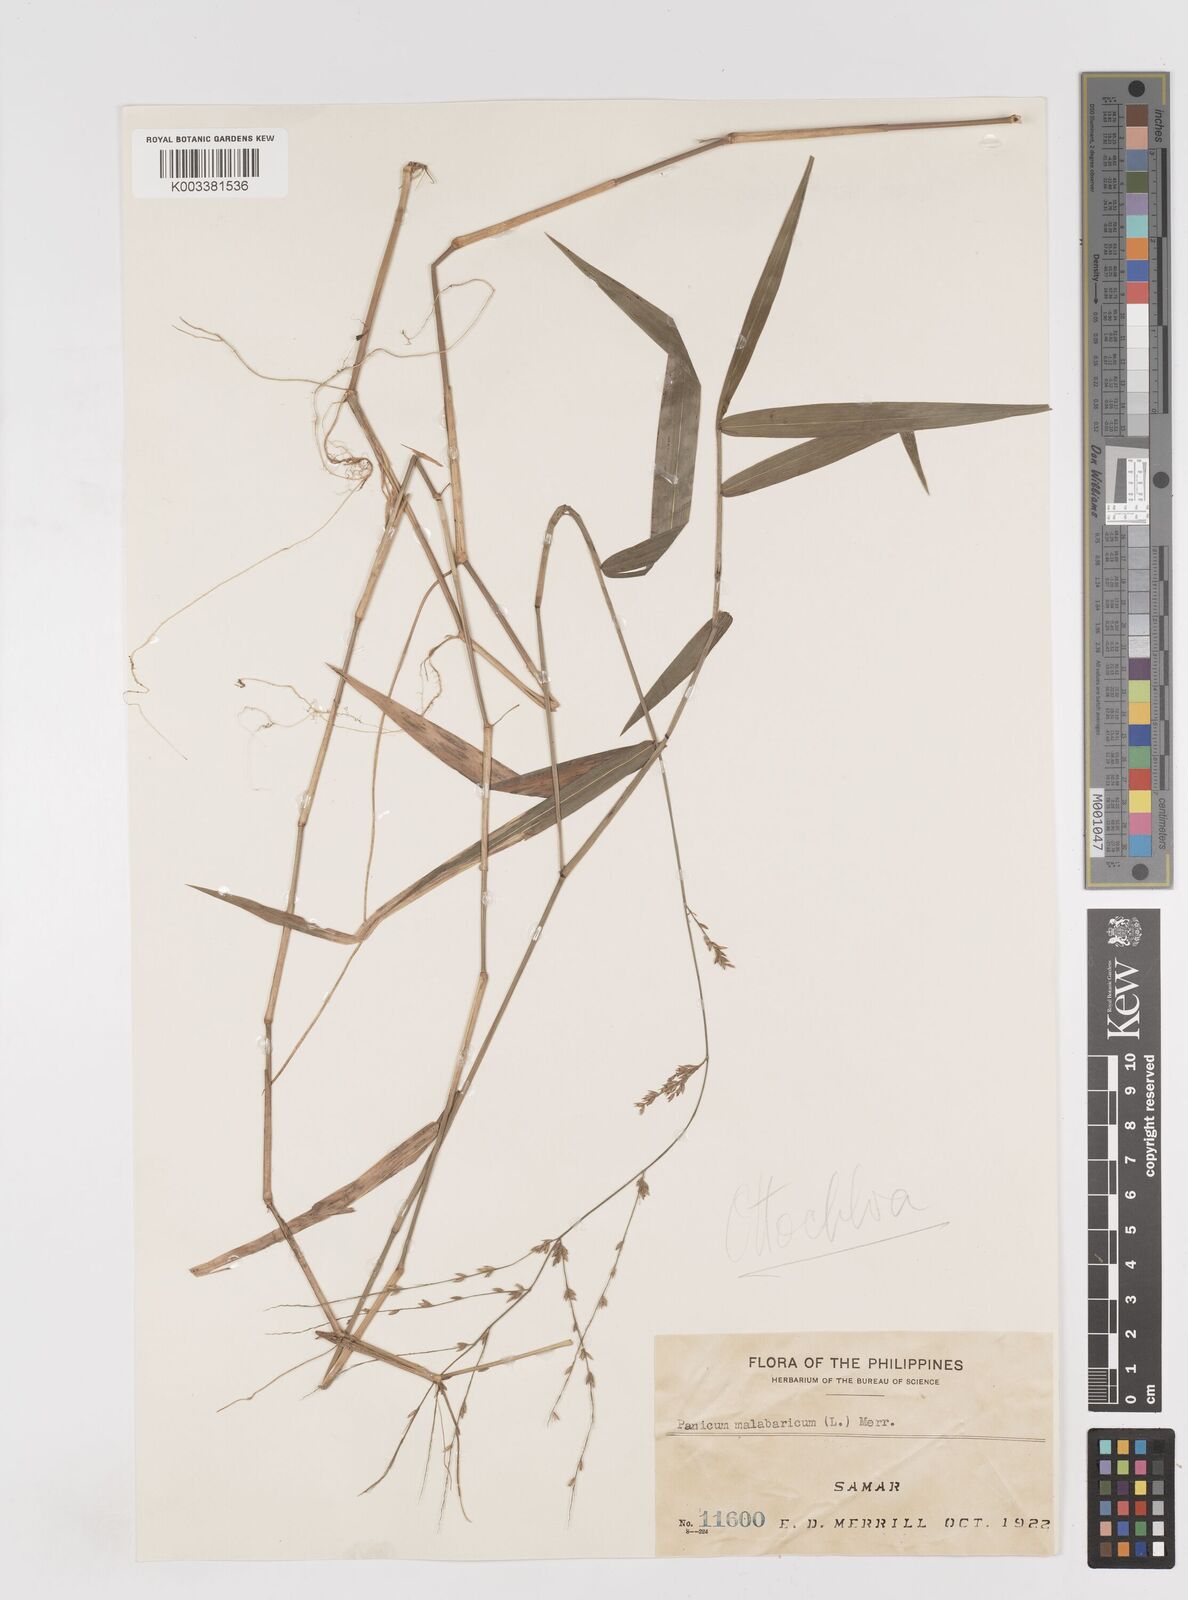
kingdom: Plantae
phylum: Tracheophyta
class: Liliopsida
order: Poales
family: Poaceae
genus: Ottochloa
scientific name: Ottochloa nodosa
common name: Slender-panic grass
